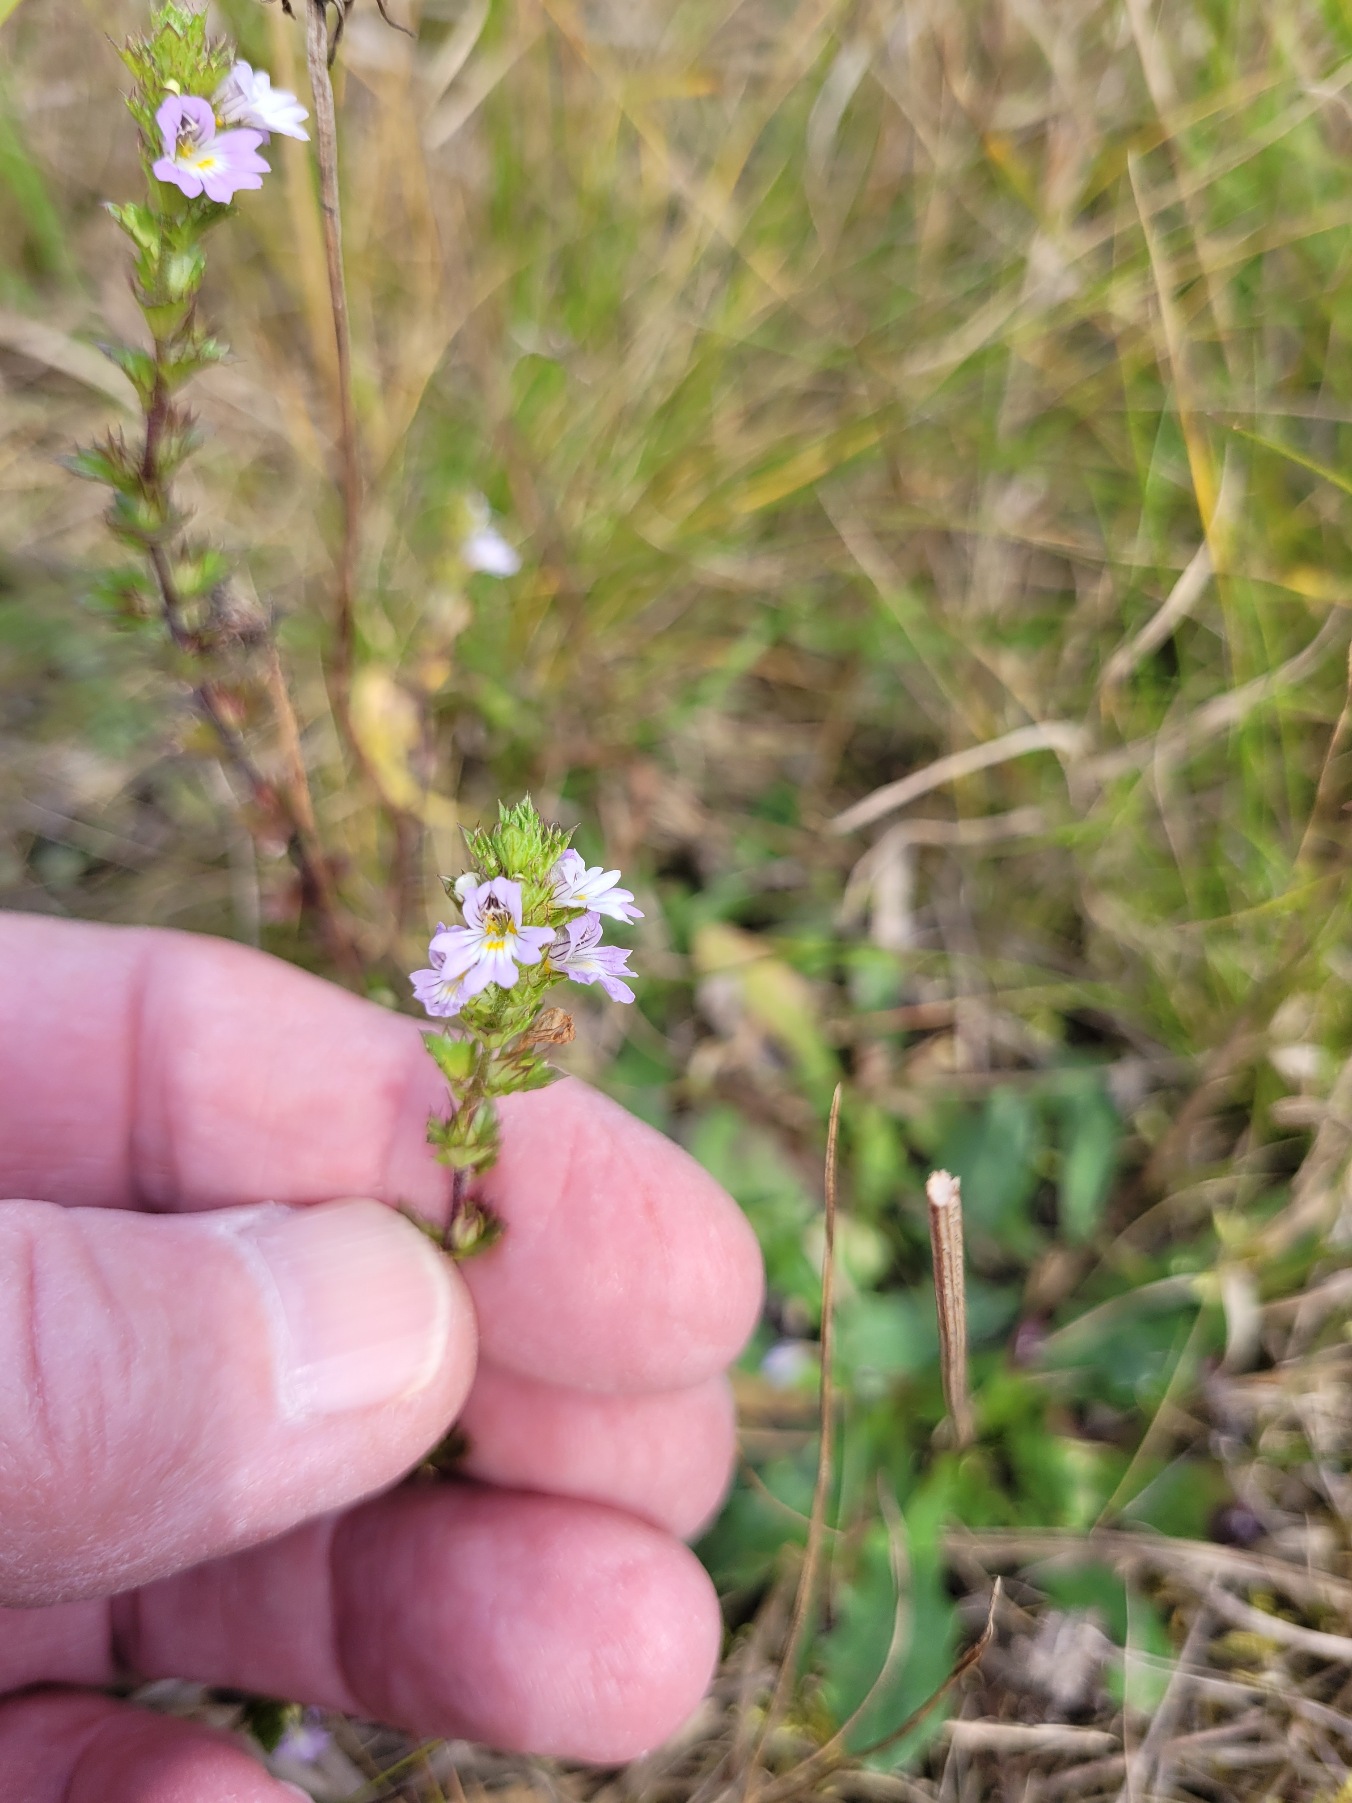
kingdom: Plantae
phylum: Tracheophyta
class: Magnoliopsida
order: Lamiales
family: Orobanchaceae
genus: Euphrasia
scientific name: Euphrasia stricta
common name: Spids øjentrøst
